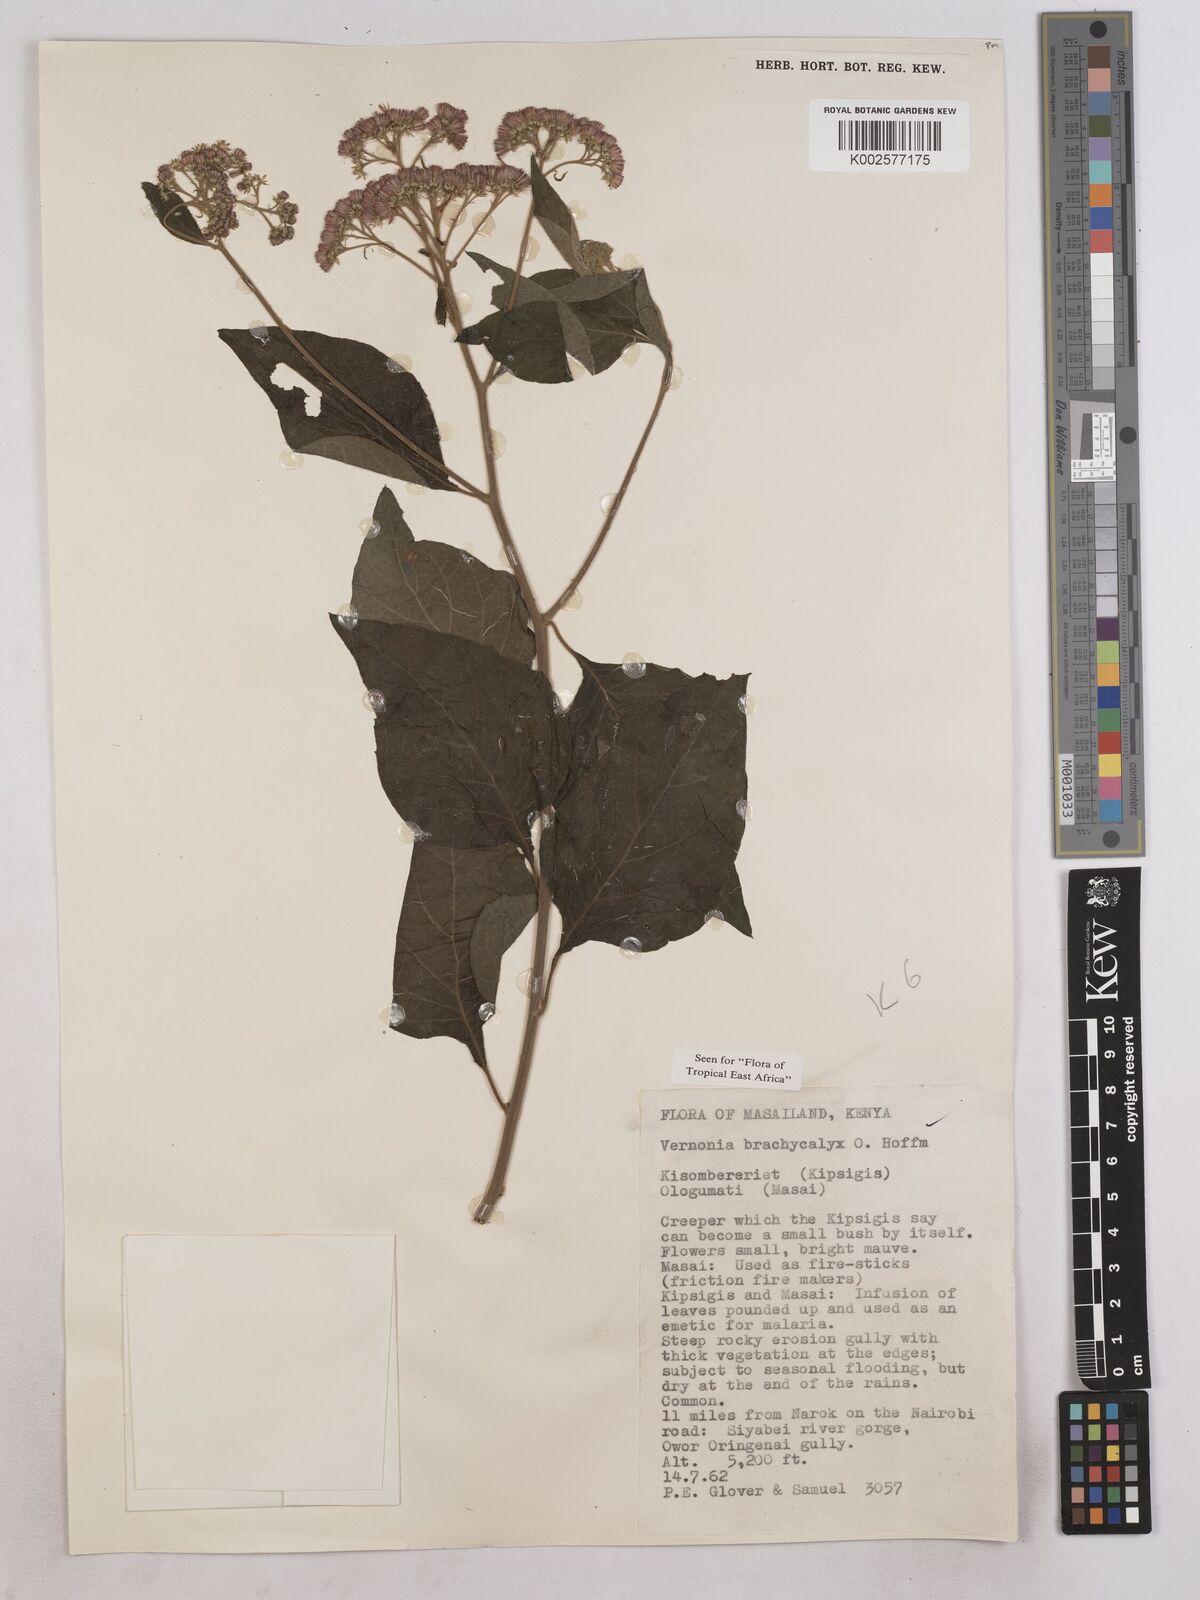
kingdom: Plantae
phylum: Tracheophyta
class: Magnoliopsida
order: Asterales
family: Asteraceae
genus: Hoffmannanthus
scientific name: Hoffmannanthus abbotianus
